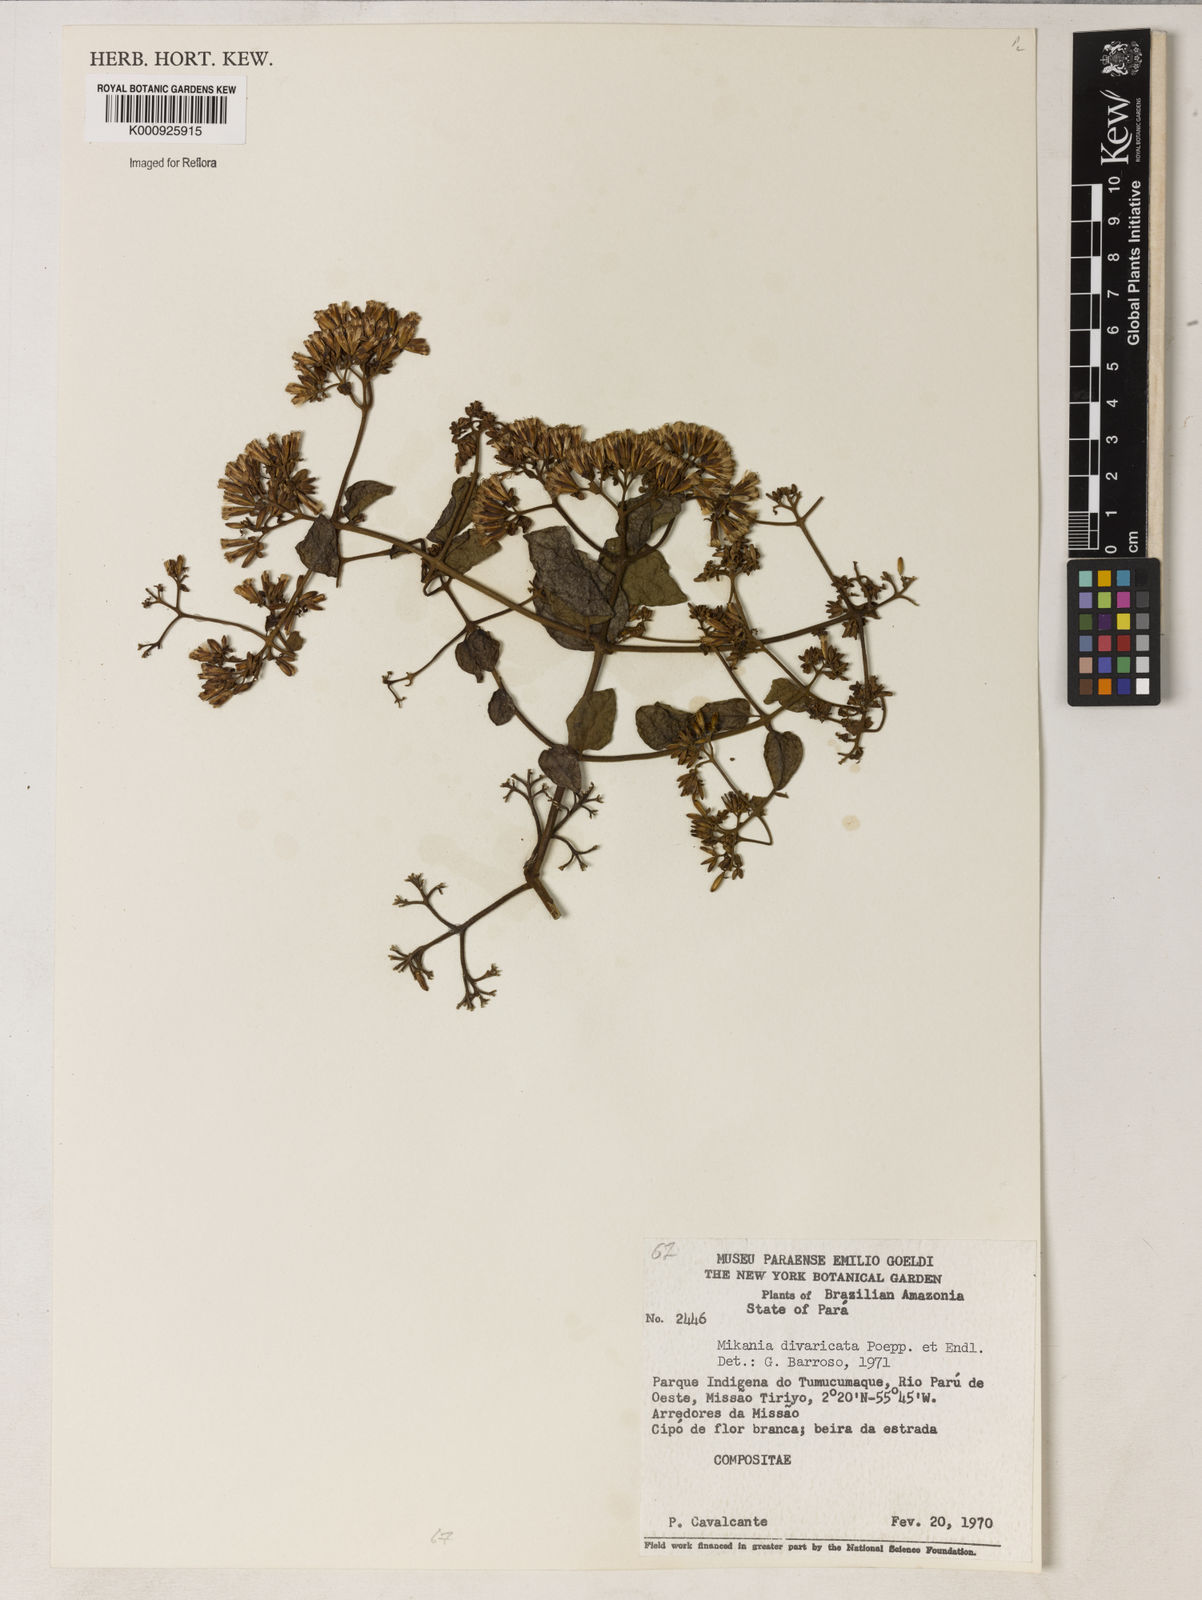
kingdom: Plantae
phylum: Tracheophyta
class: Magnoliopsida
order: Asterales
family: Asteraceae
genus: Mikania
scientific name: Mikania parviflora
